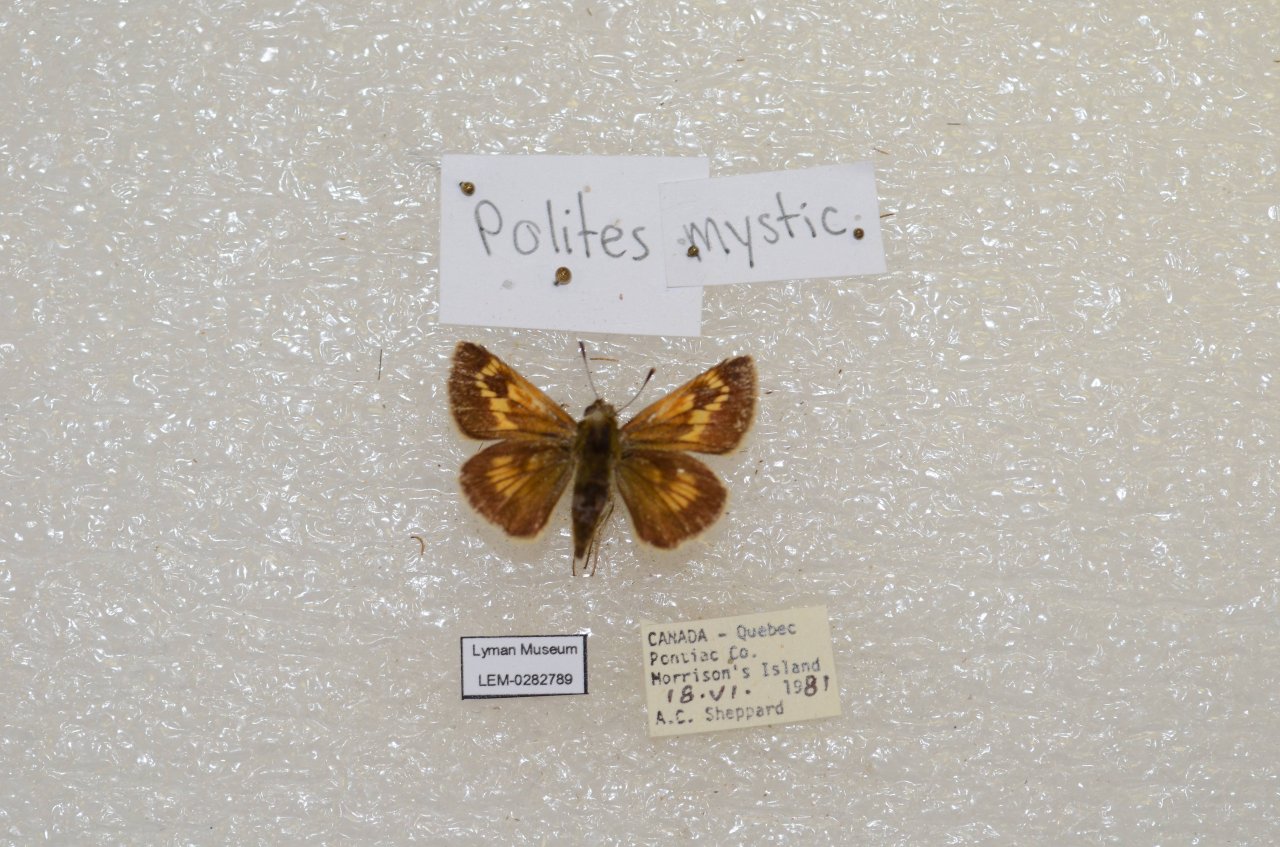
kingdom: Animalia
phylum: Arthropoda
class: Insecta
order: Lepidoptera
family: Hesperiidae
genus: Polites
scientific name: Polites
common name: Long Dash Skipper
